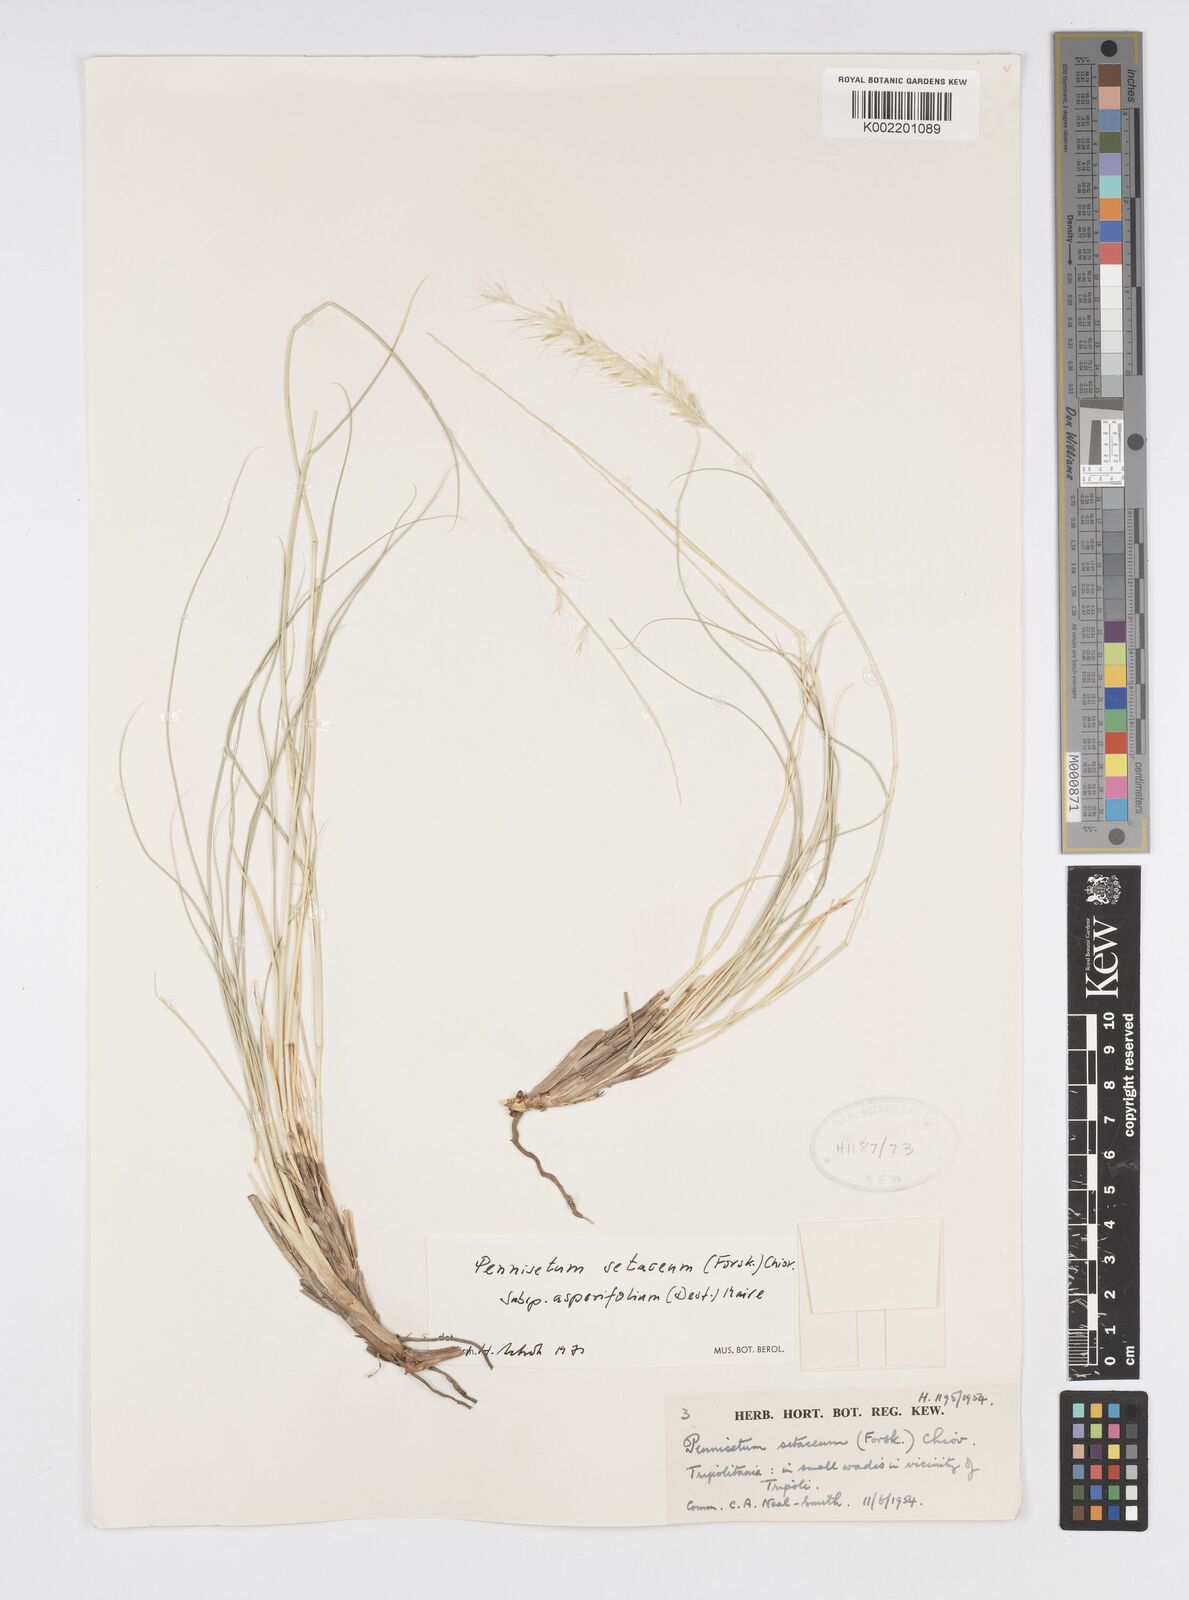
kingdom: Plantae
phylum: Tracheophyta
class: Liliopsida
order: Poales
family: Poaceae
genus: Cenchrus
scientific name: Cenchrus setaceus
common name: Crimson fountaingrass
